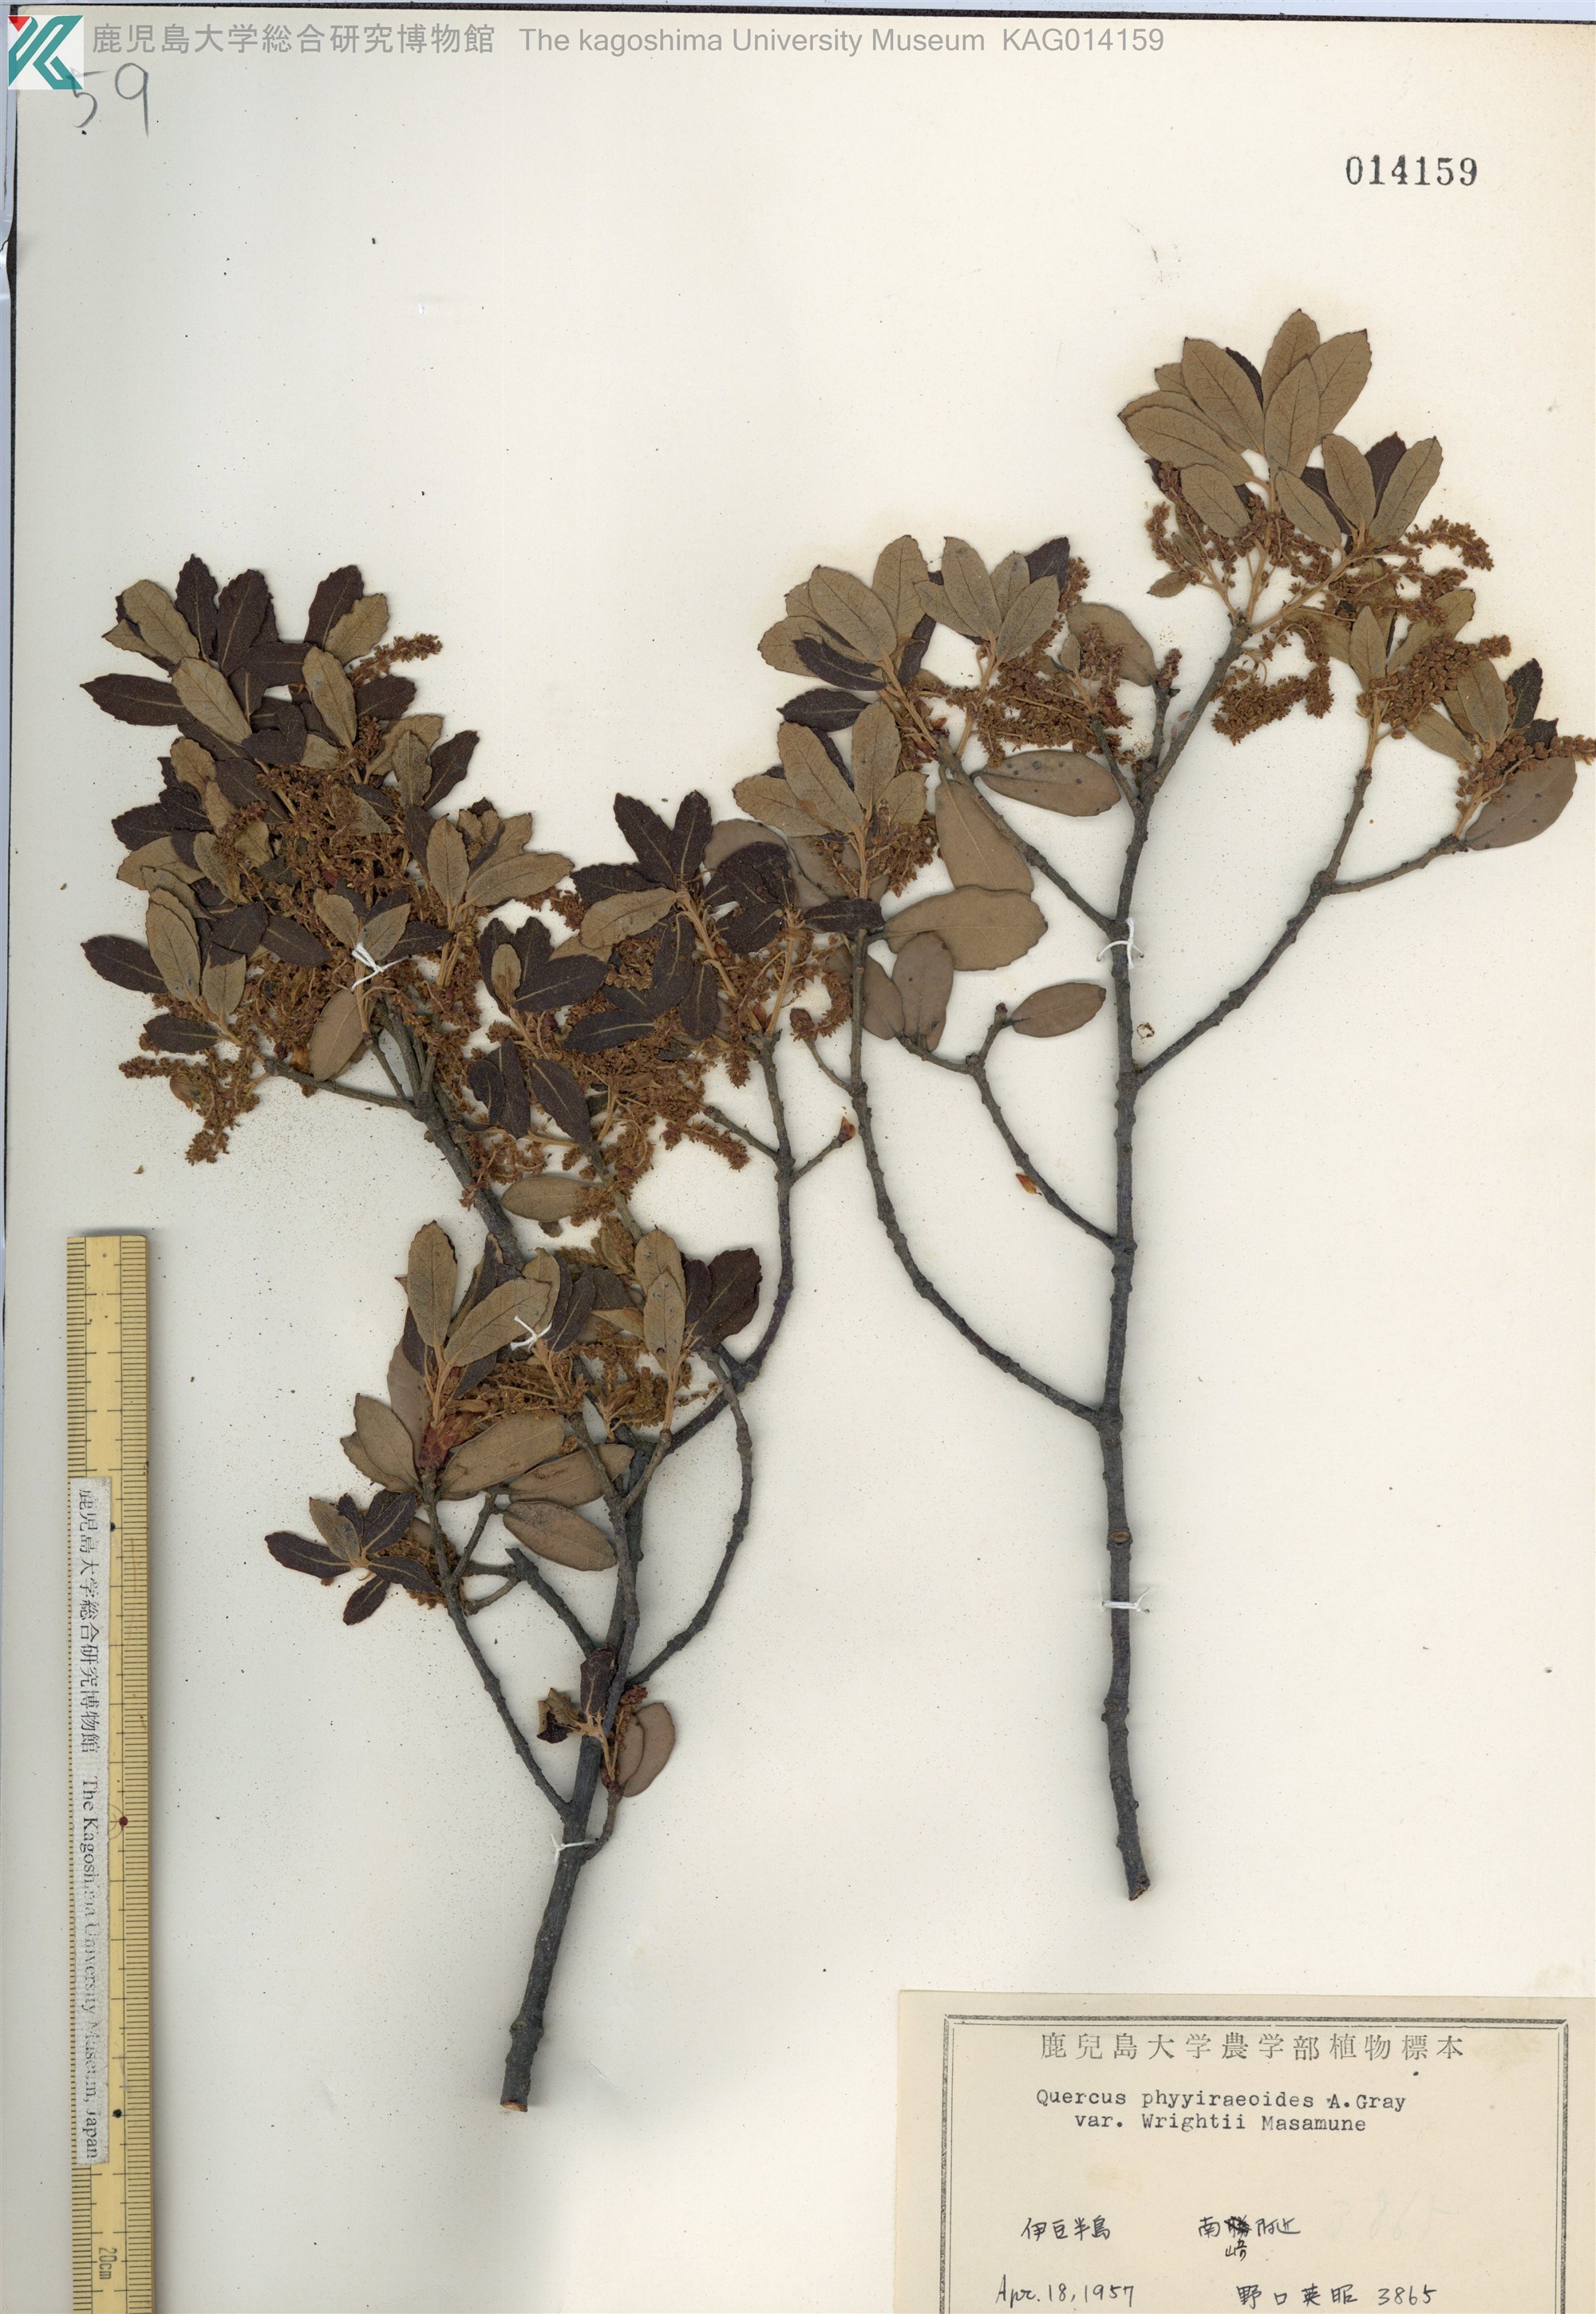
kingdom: Plantae
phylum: Tracheophyta
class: Magnoliopsida
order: Fagales
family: Fagaceae
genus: Quercus
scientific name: Quercus phillyreoides
